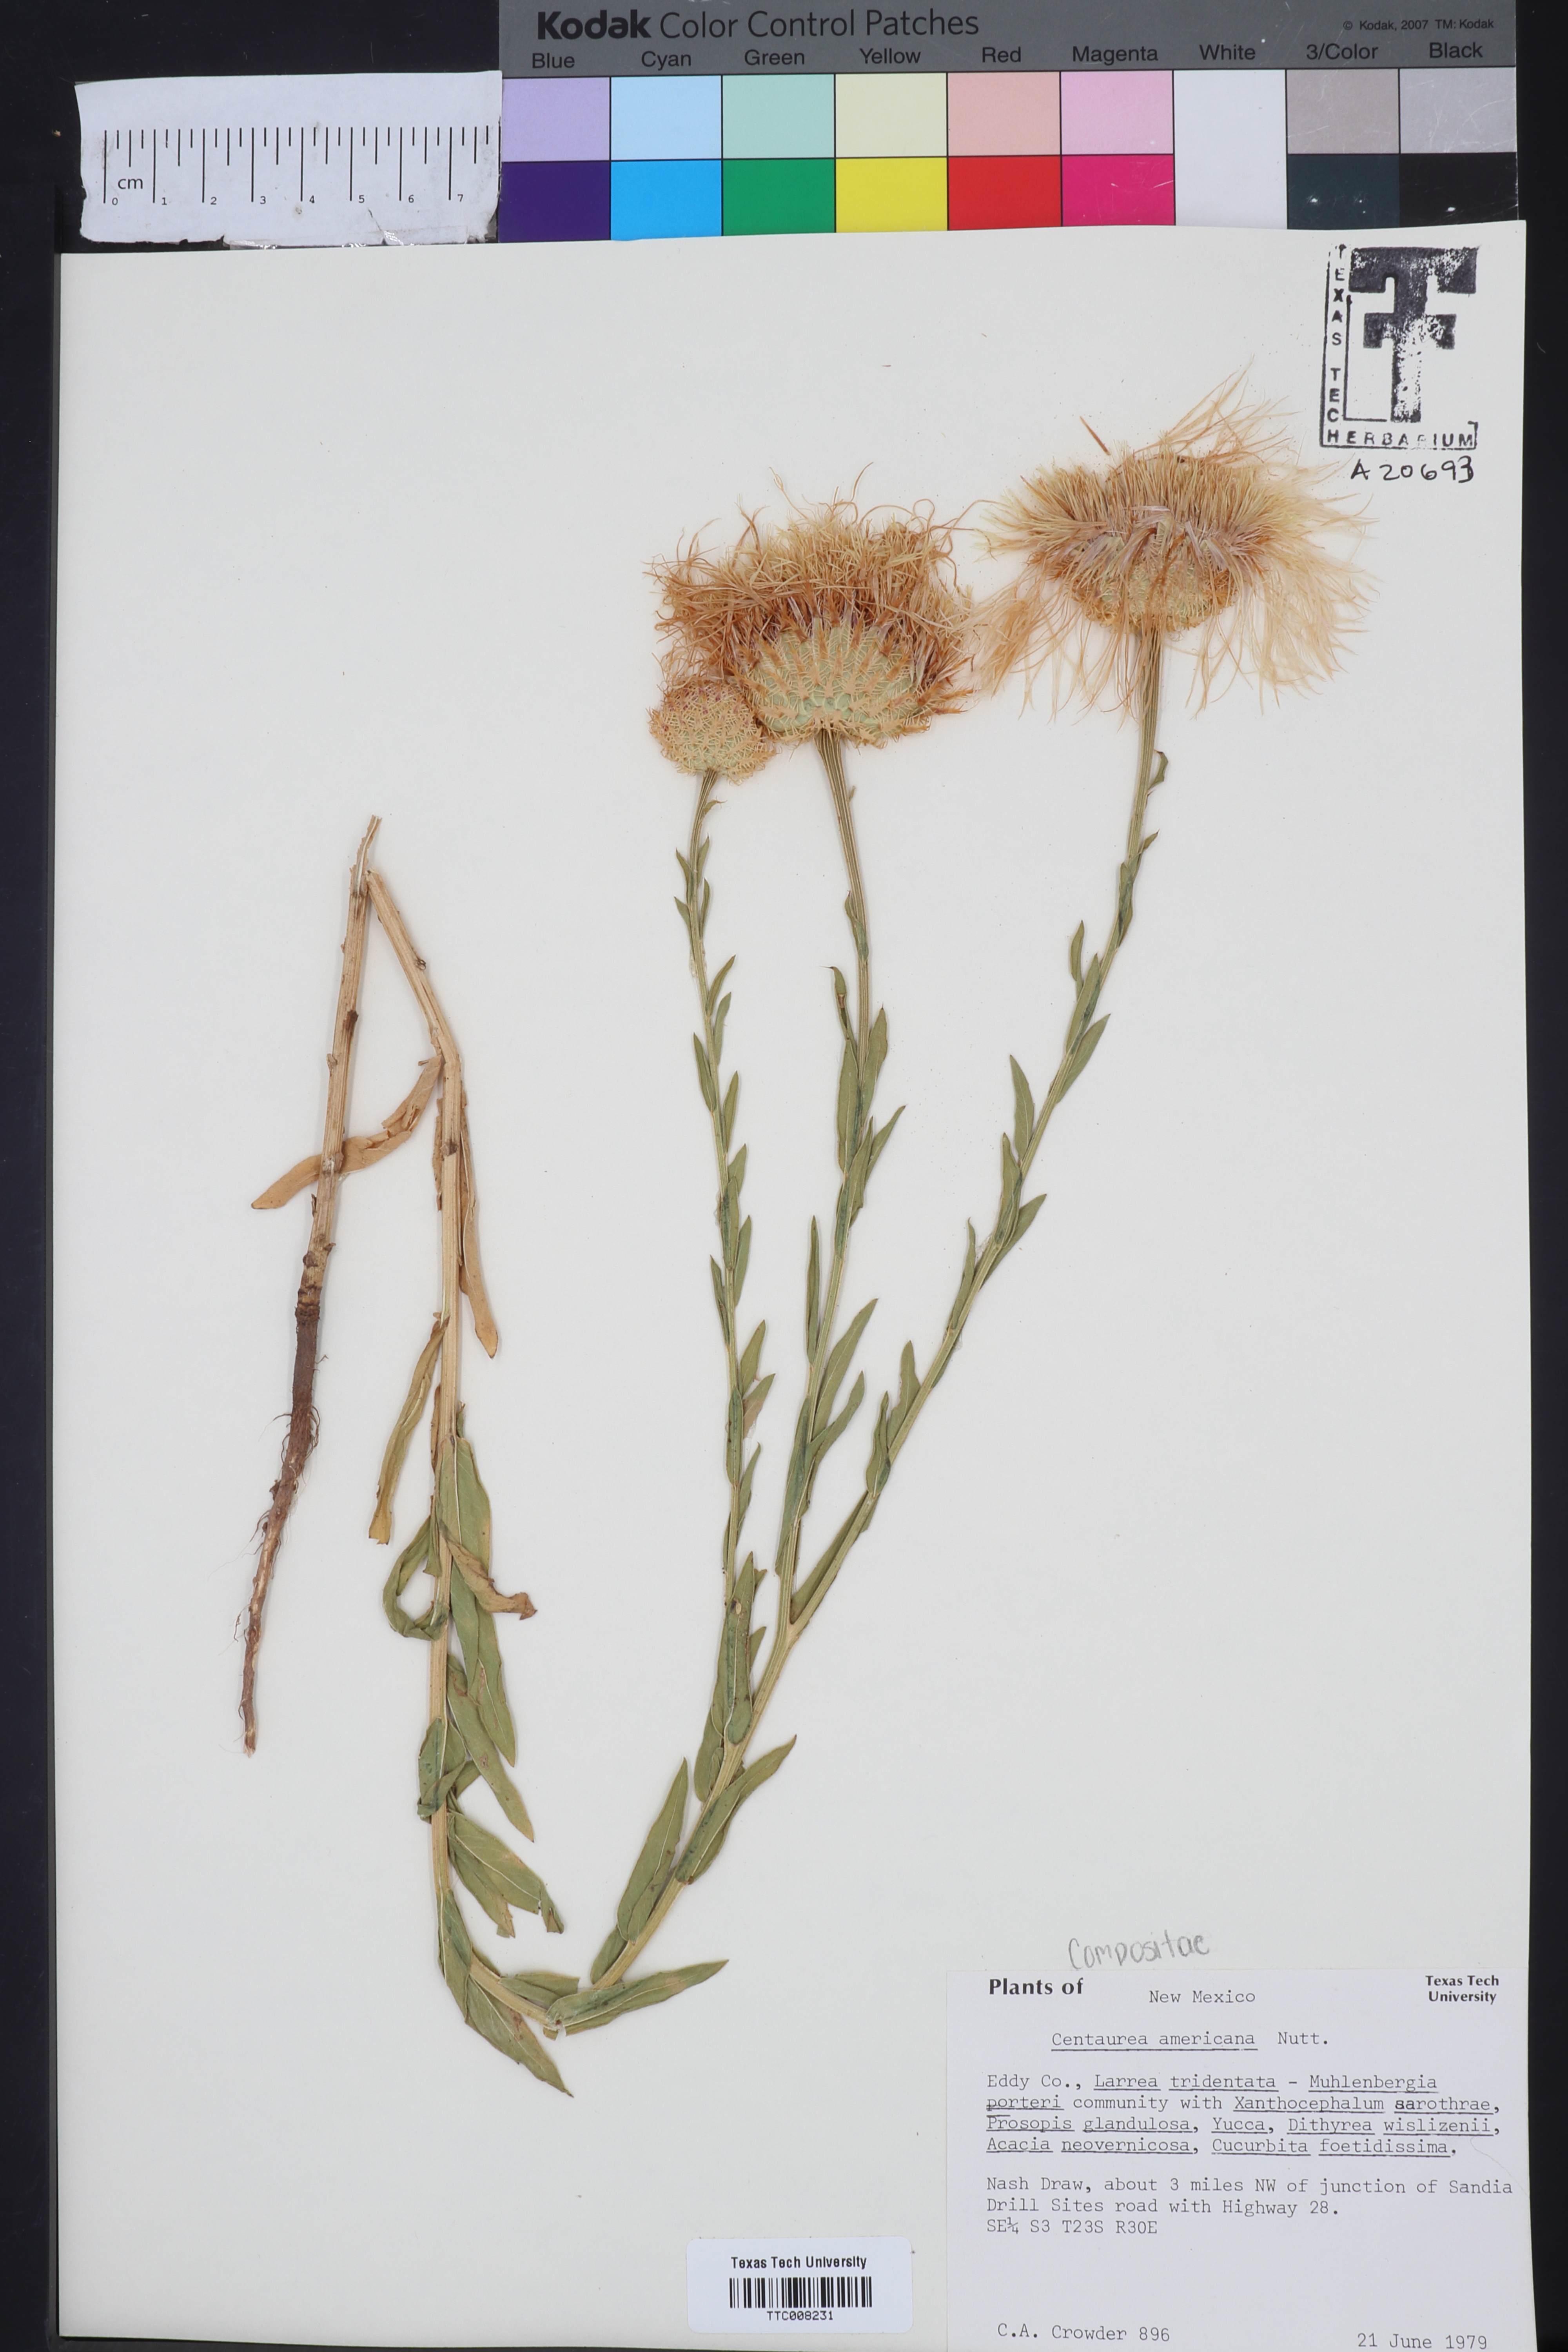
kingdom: Plantae
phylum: Tracheophyta
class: Magnoliopsida
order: Asterales
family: Asteraceae
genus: Plectocephalus
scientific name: Plectocephalus americanus
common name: American basket-flower
